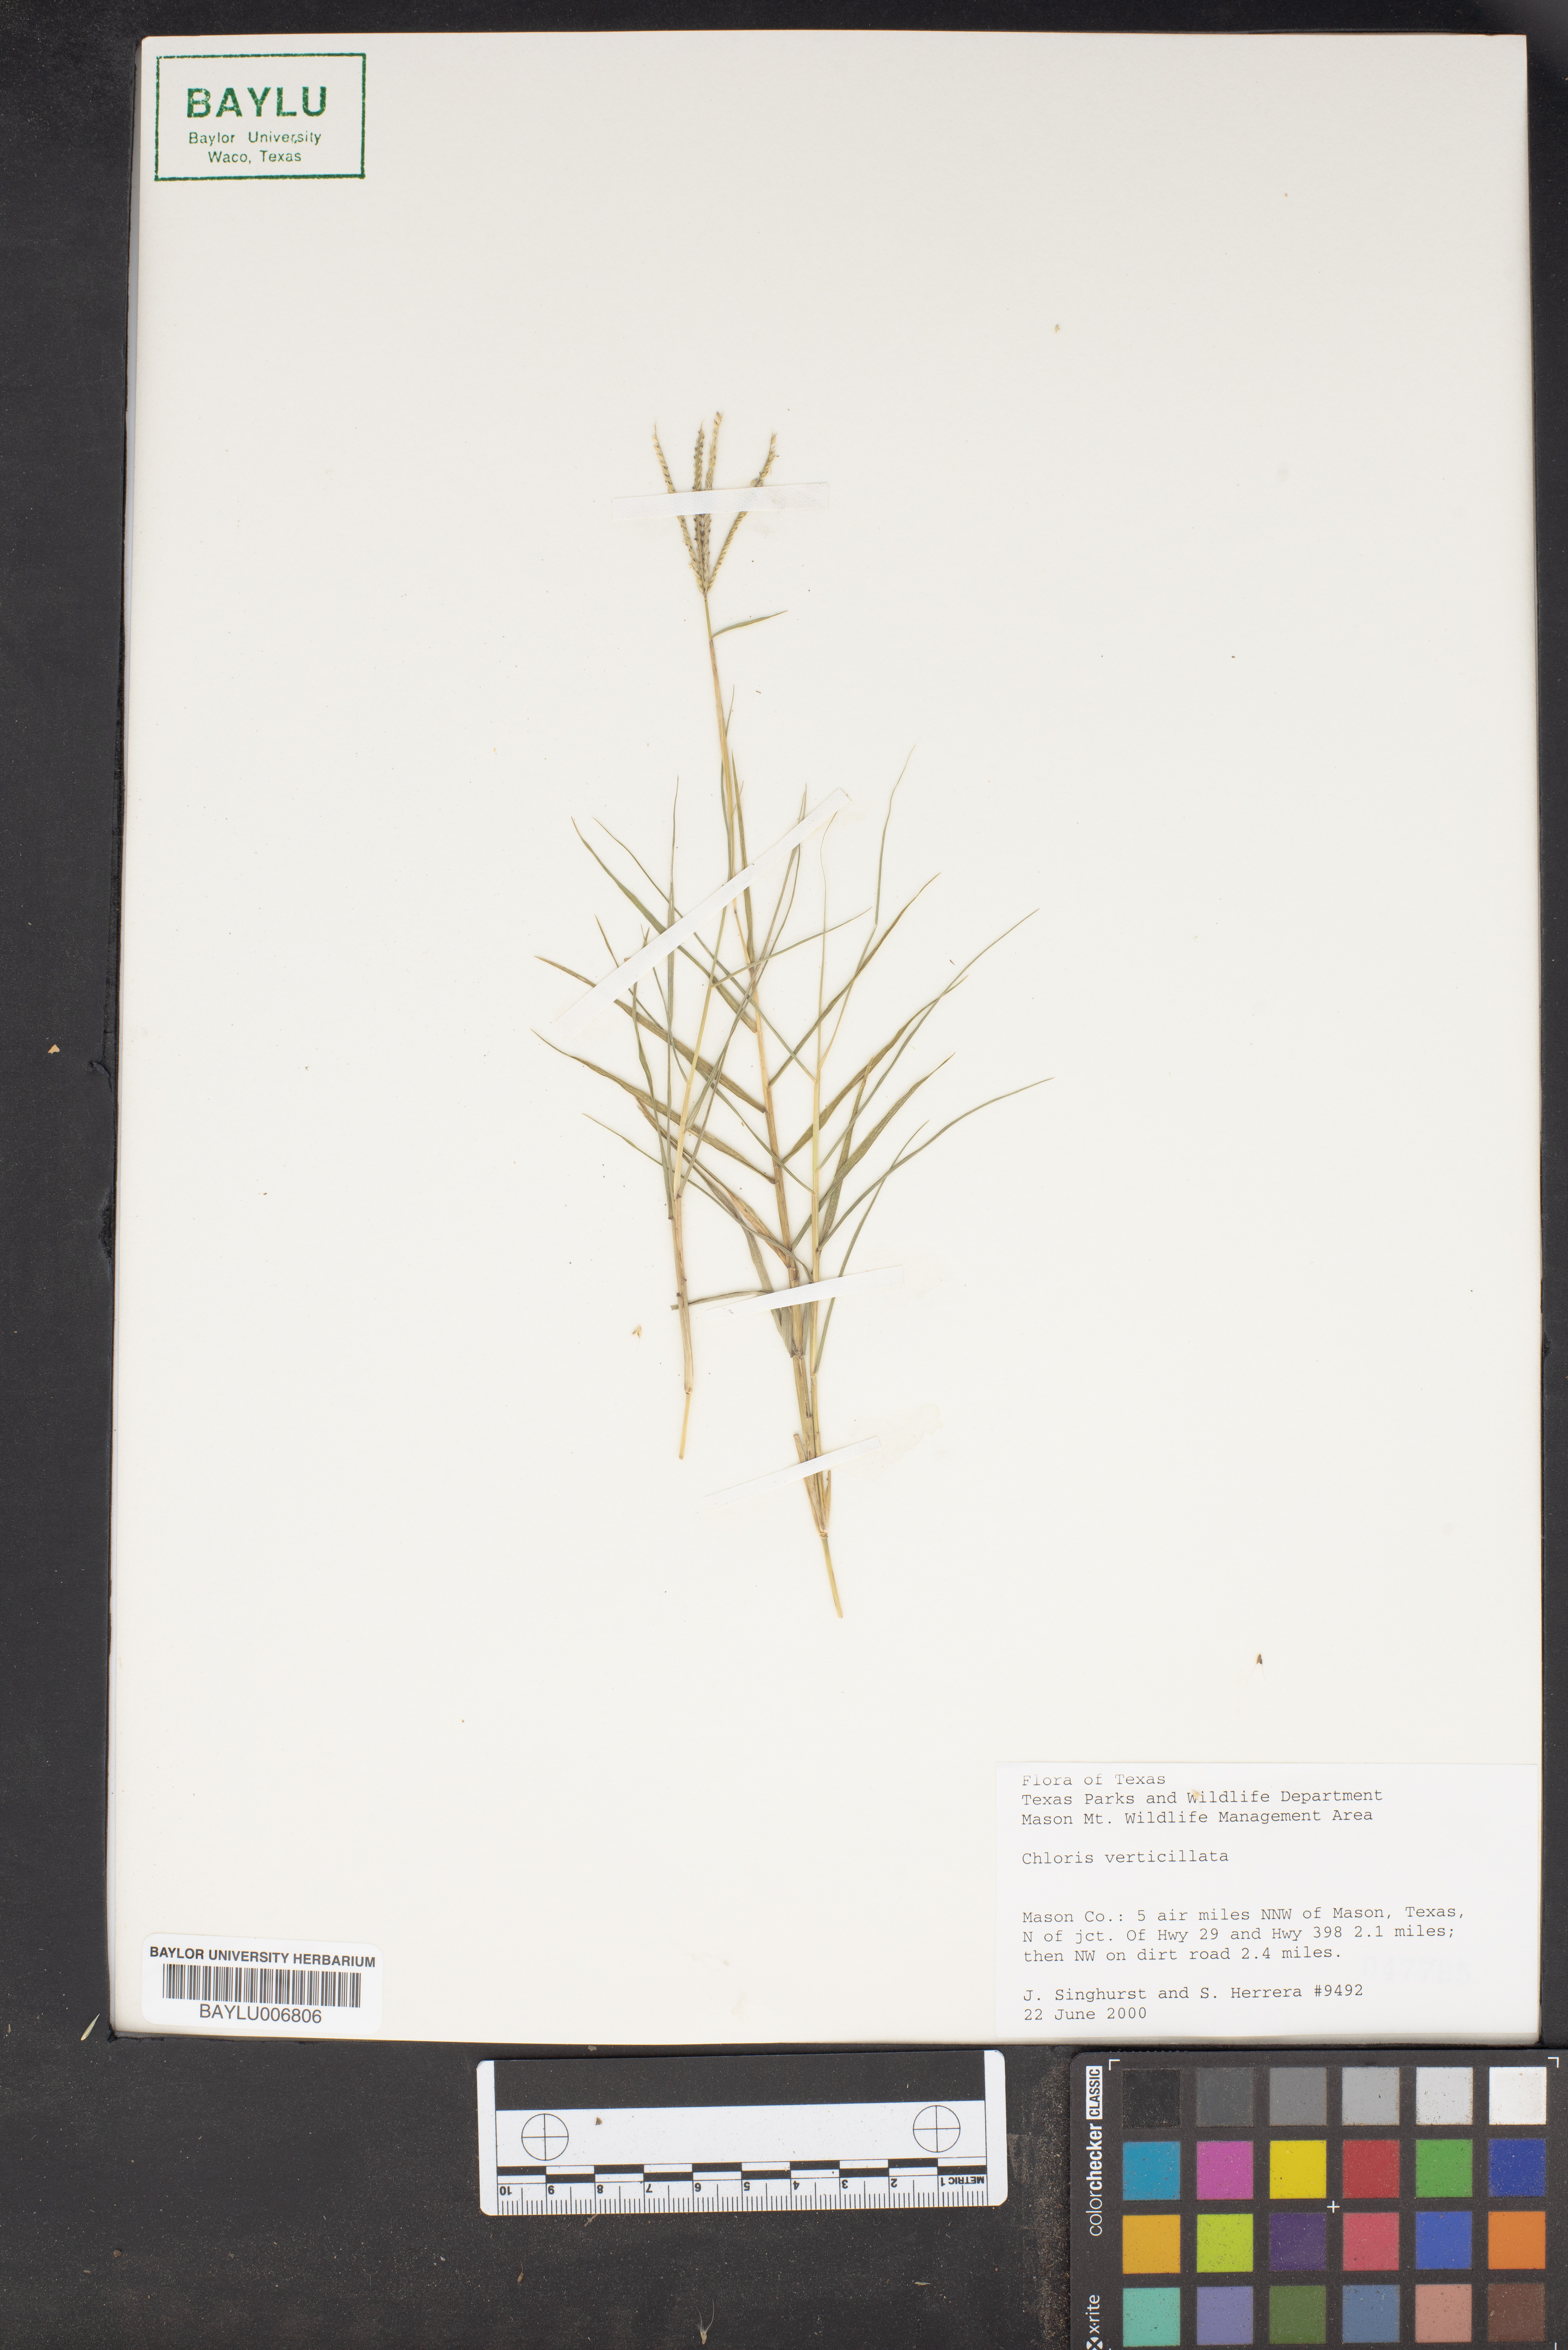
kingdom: Plantae
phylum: Tracheophyta
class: Liliopsida
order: Poales
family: Poaceae
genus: Chloris
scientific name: Chloris verticillata
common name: Tumble windmill grass
